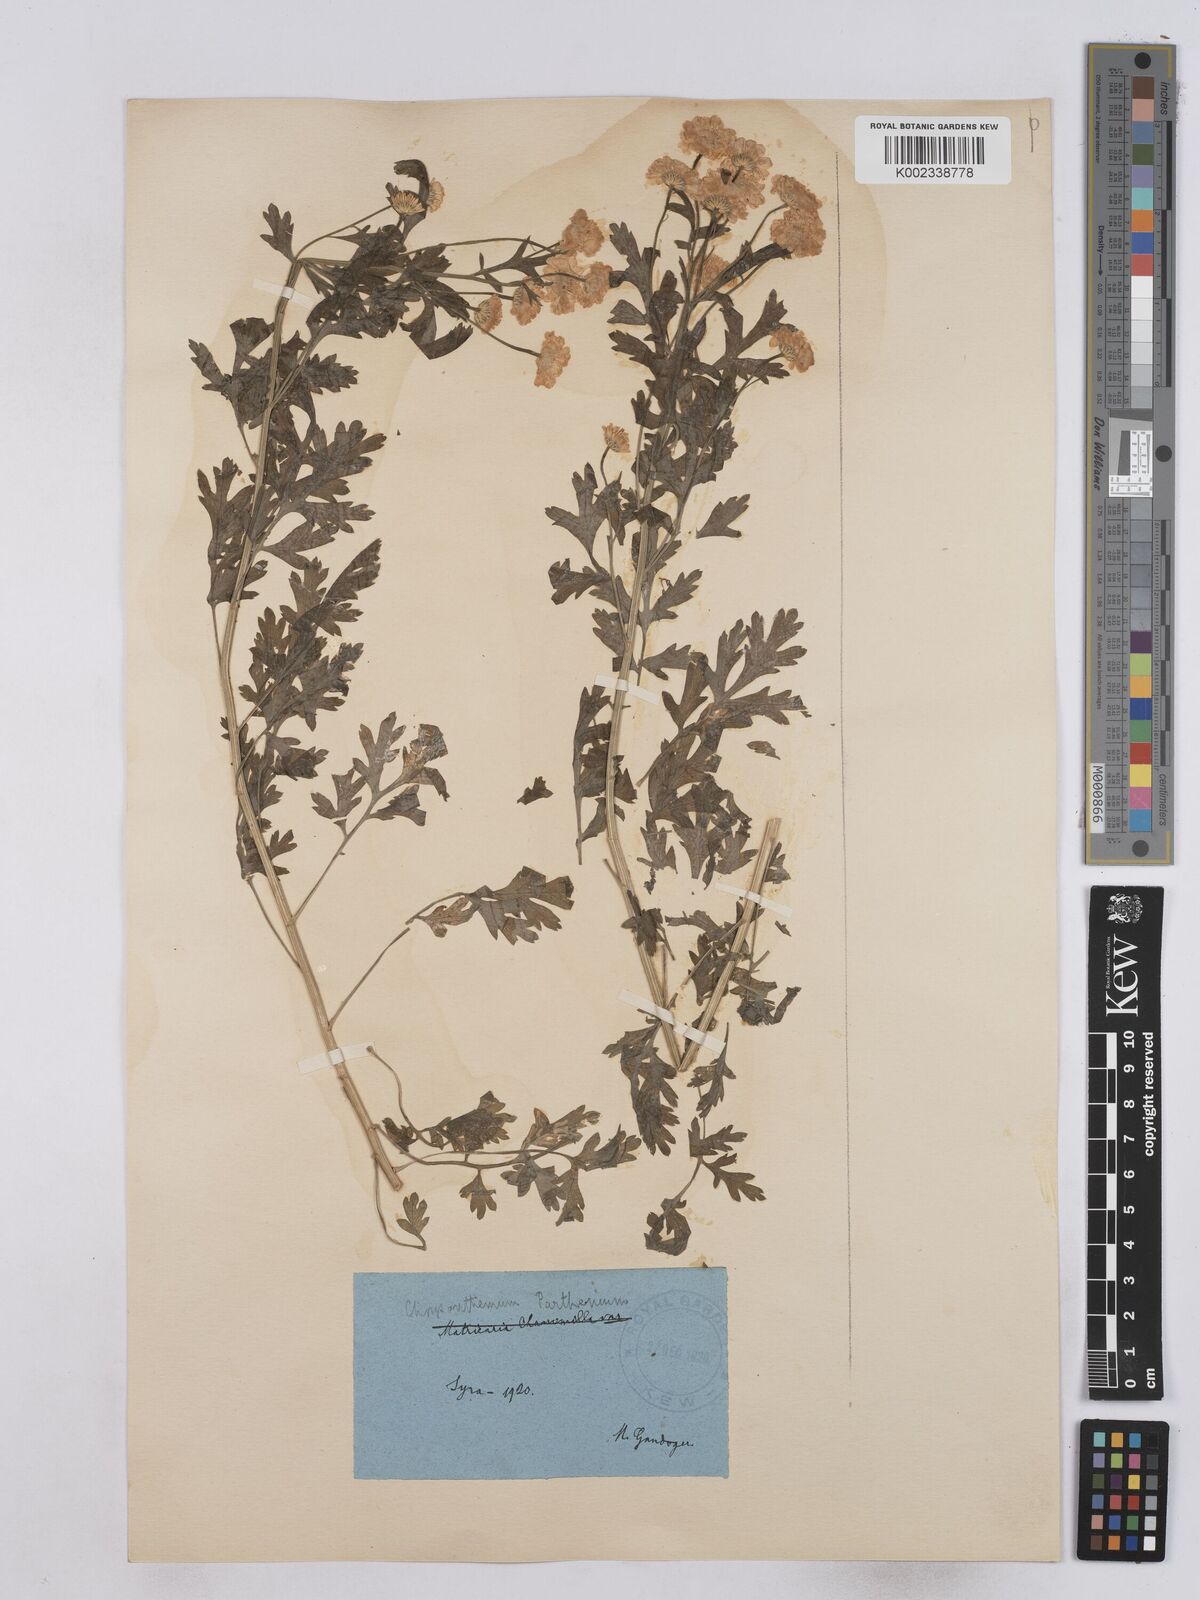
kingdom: Plantae
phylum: Tracheophyta
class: Magnoliopsida
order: Asterales
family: Asteraceae
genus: Tanacetum
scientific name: Tanacetum parthenium
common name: Feverfew
